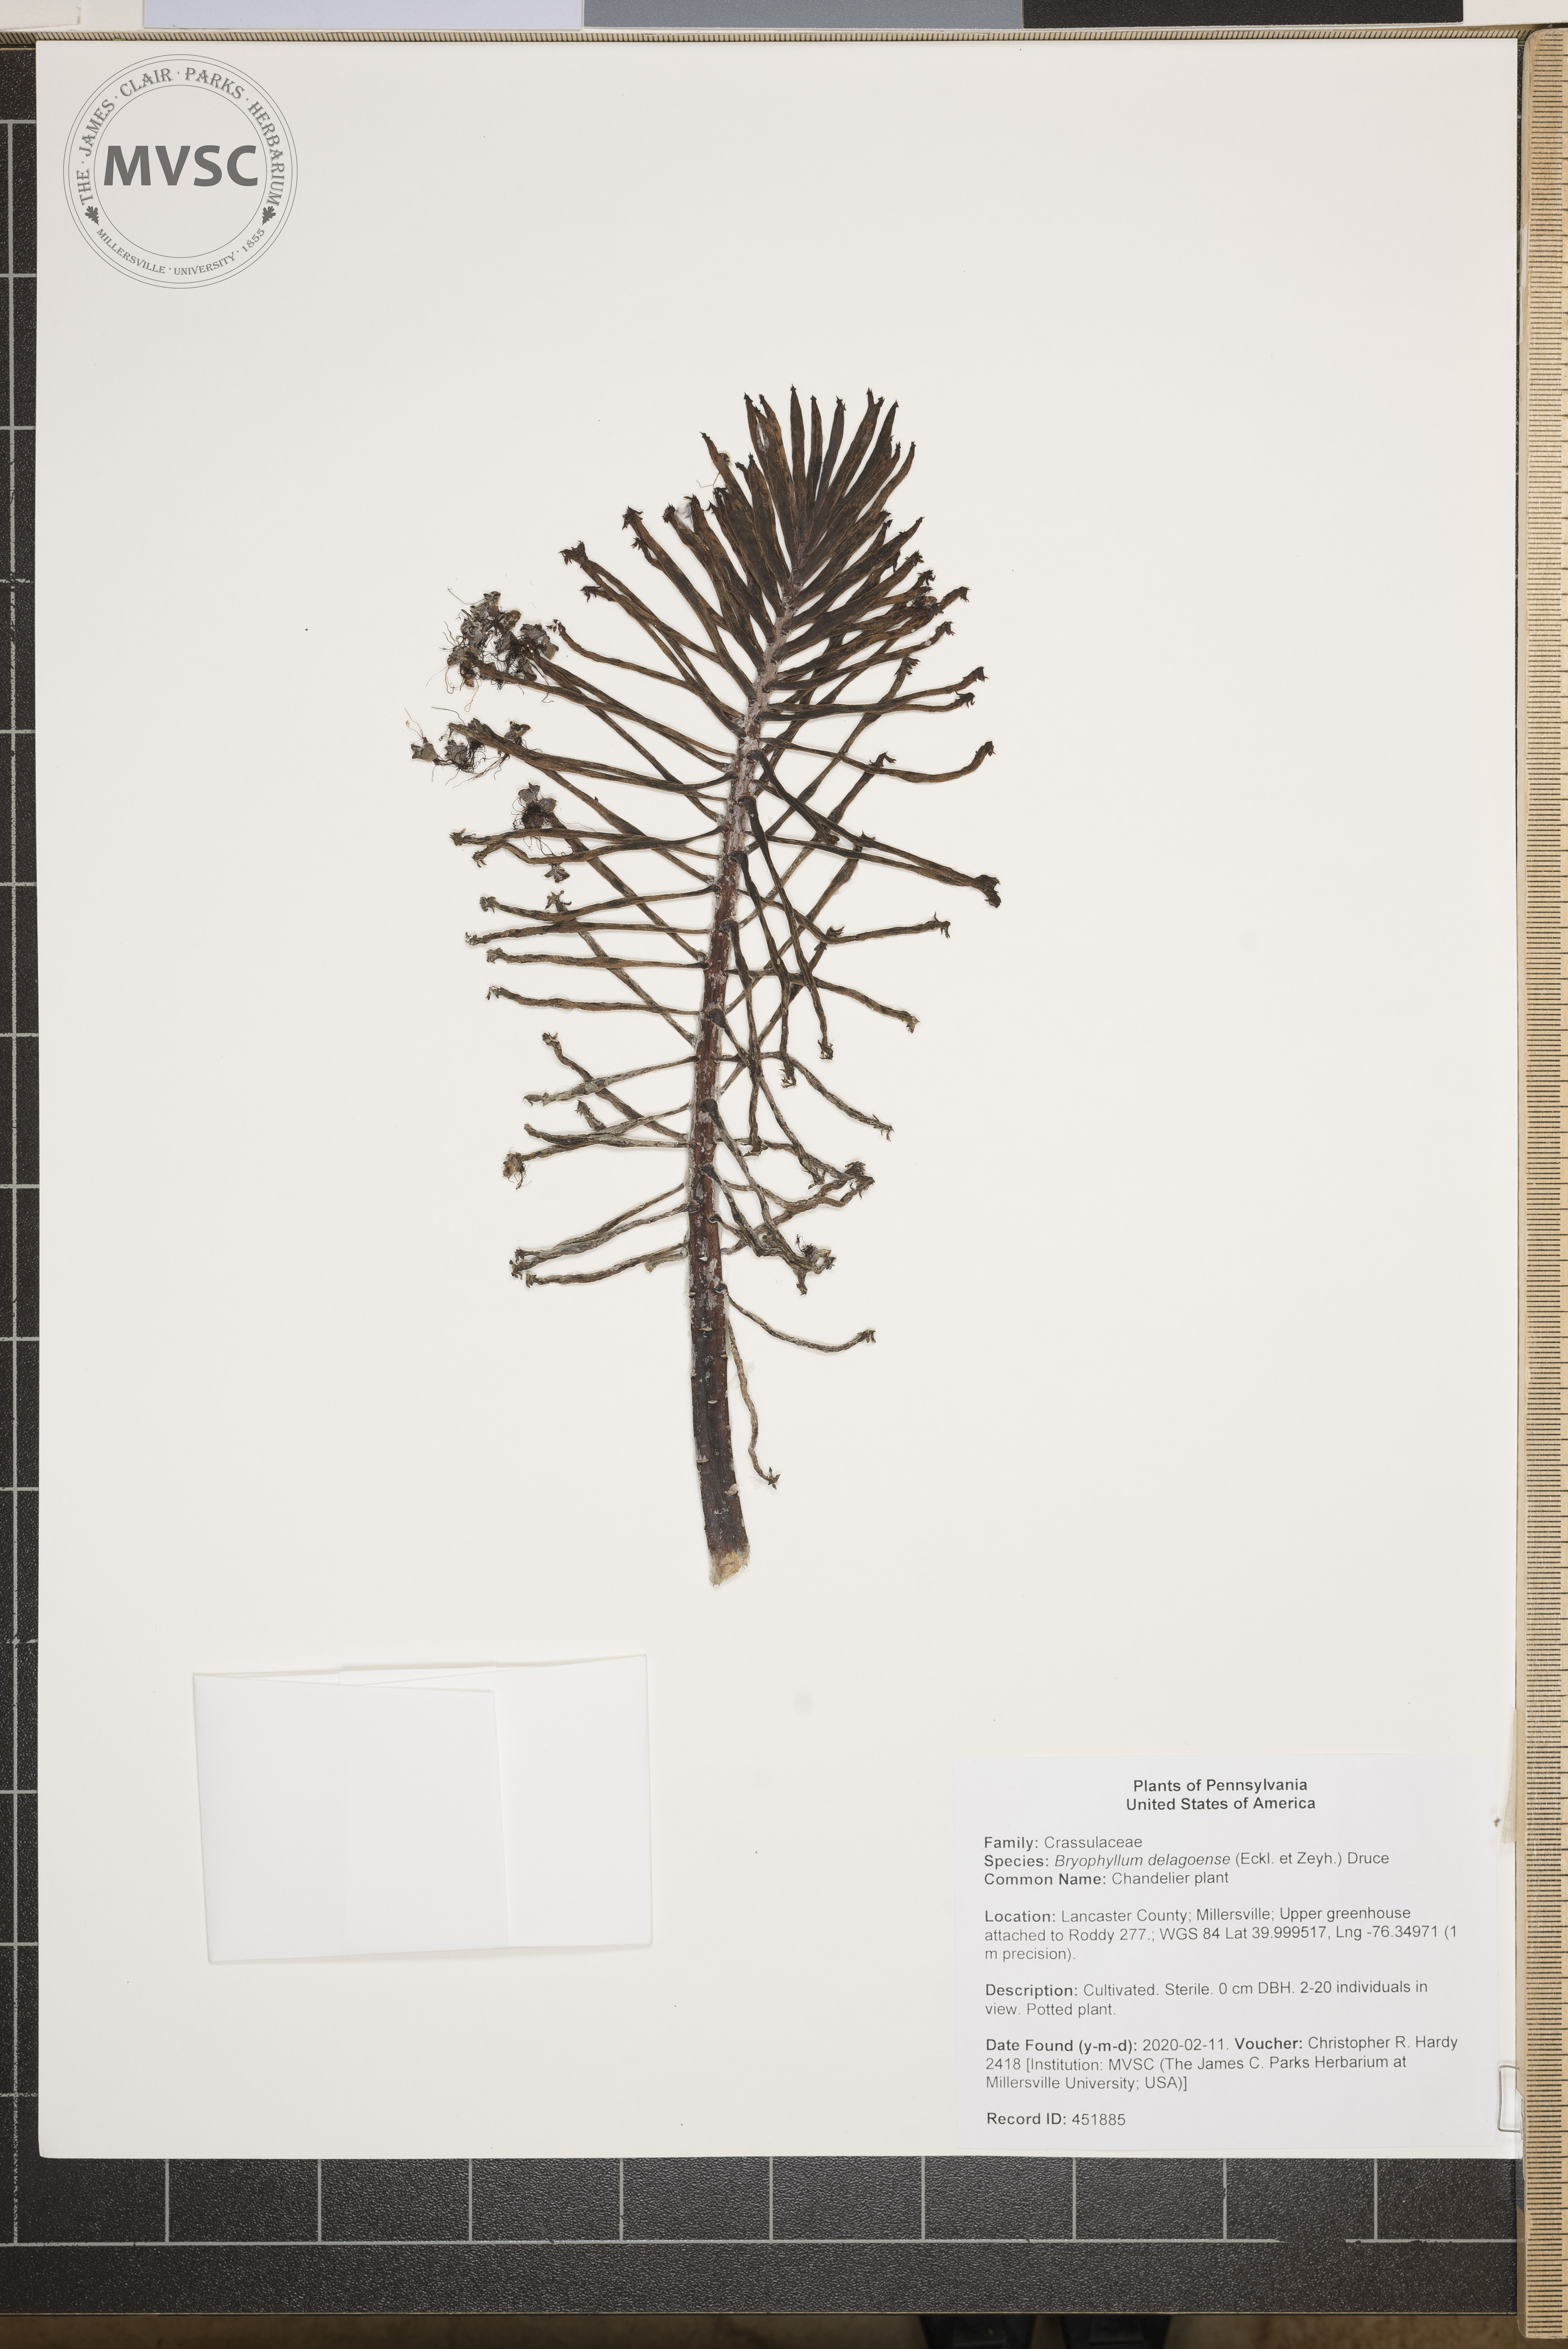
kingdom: Plantae
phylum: Tracheophyta
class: Magnoliopsida
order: Saxifragales
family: Crassulaceae
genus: Kalanchoe
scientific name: Kalanchoe delagoensis
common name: Chandelier plant
